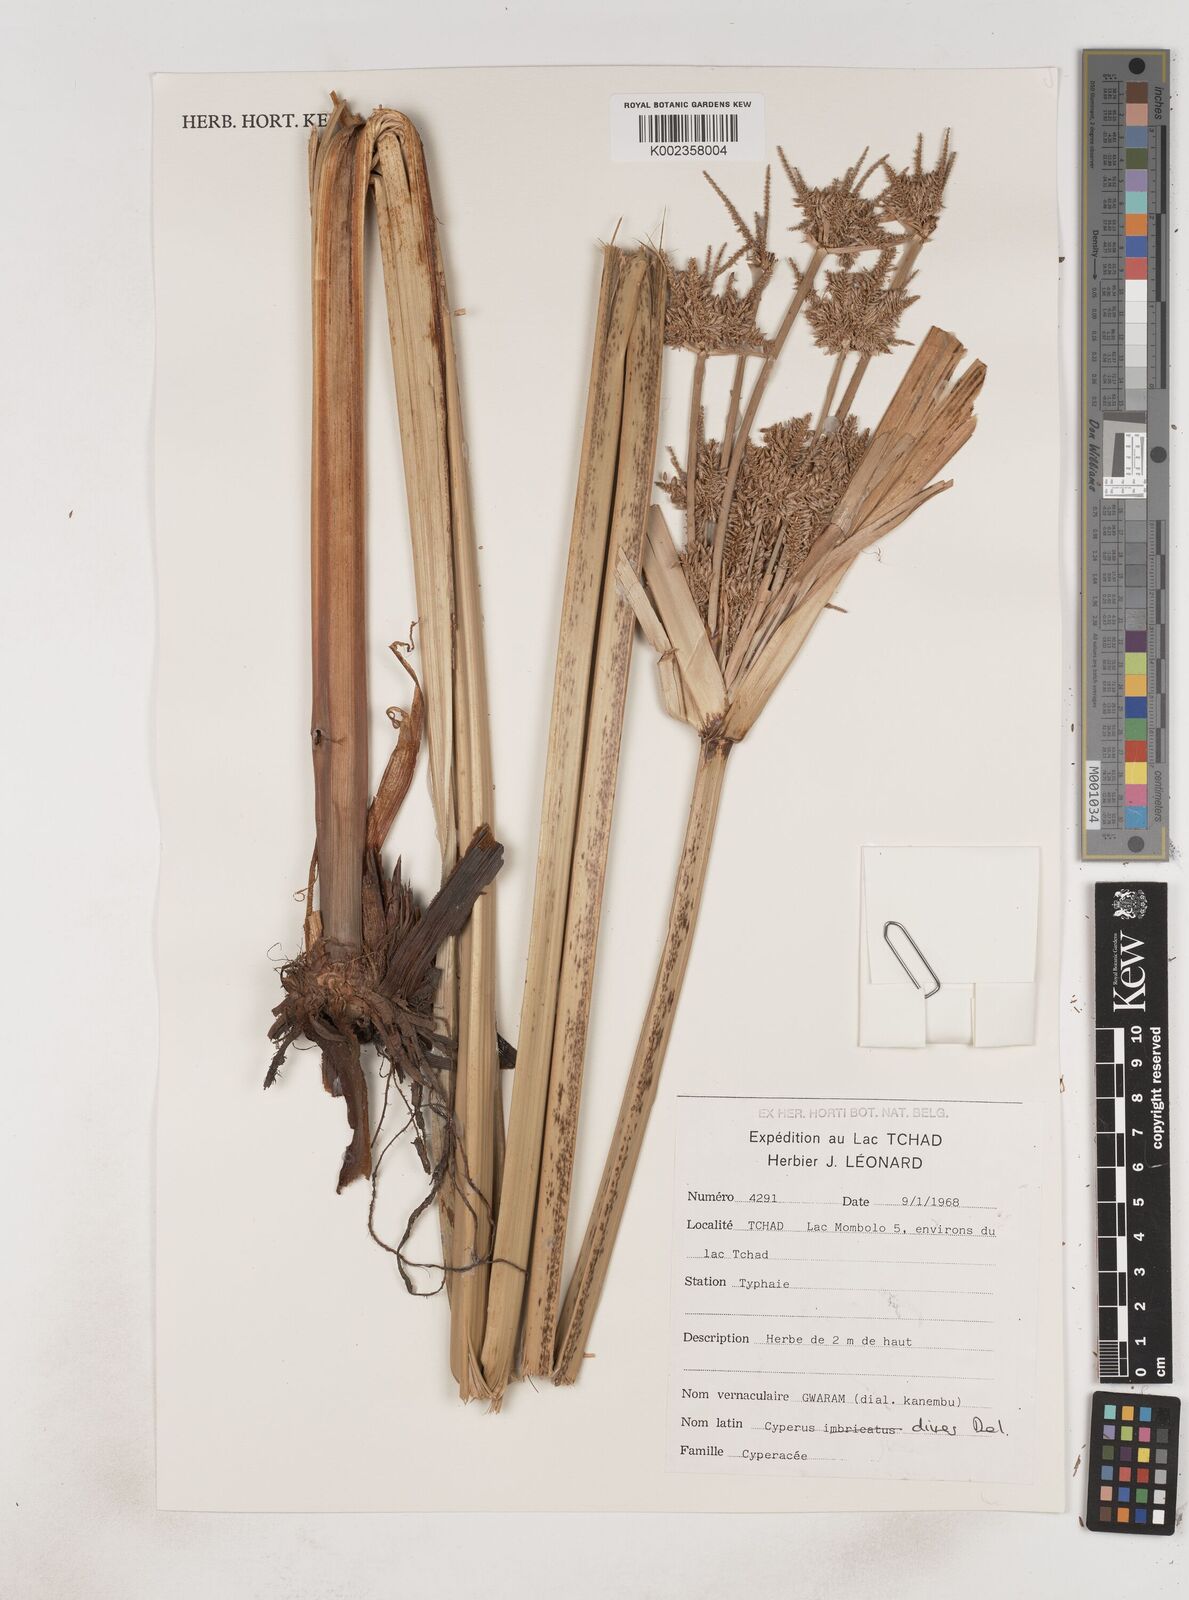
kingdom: Plantae
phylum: Tracheophyta
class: Liliopsida
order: Poales
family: Cyperaceae
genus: Cyperus
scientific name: Cyperus dives
